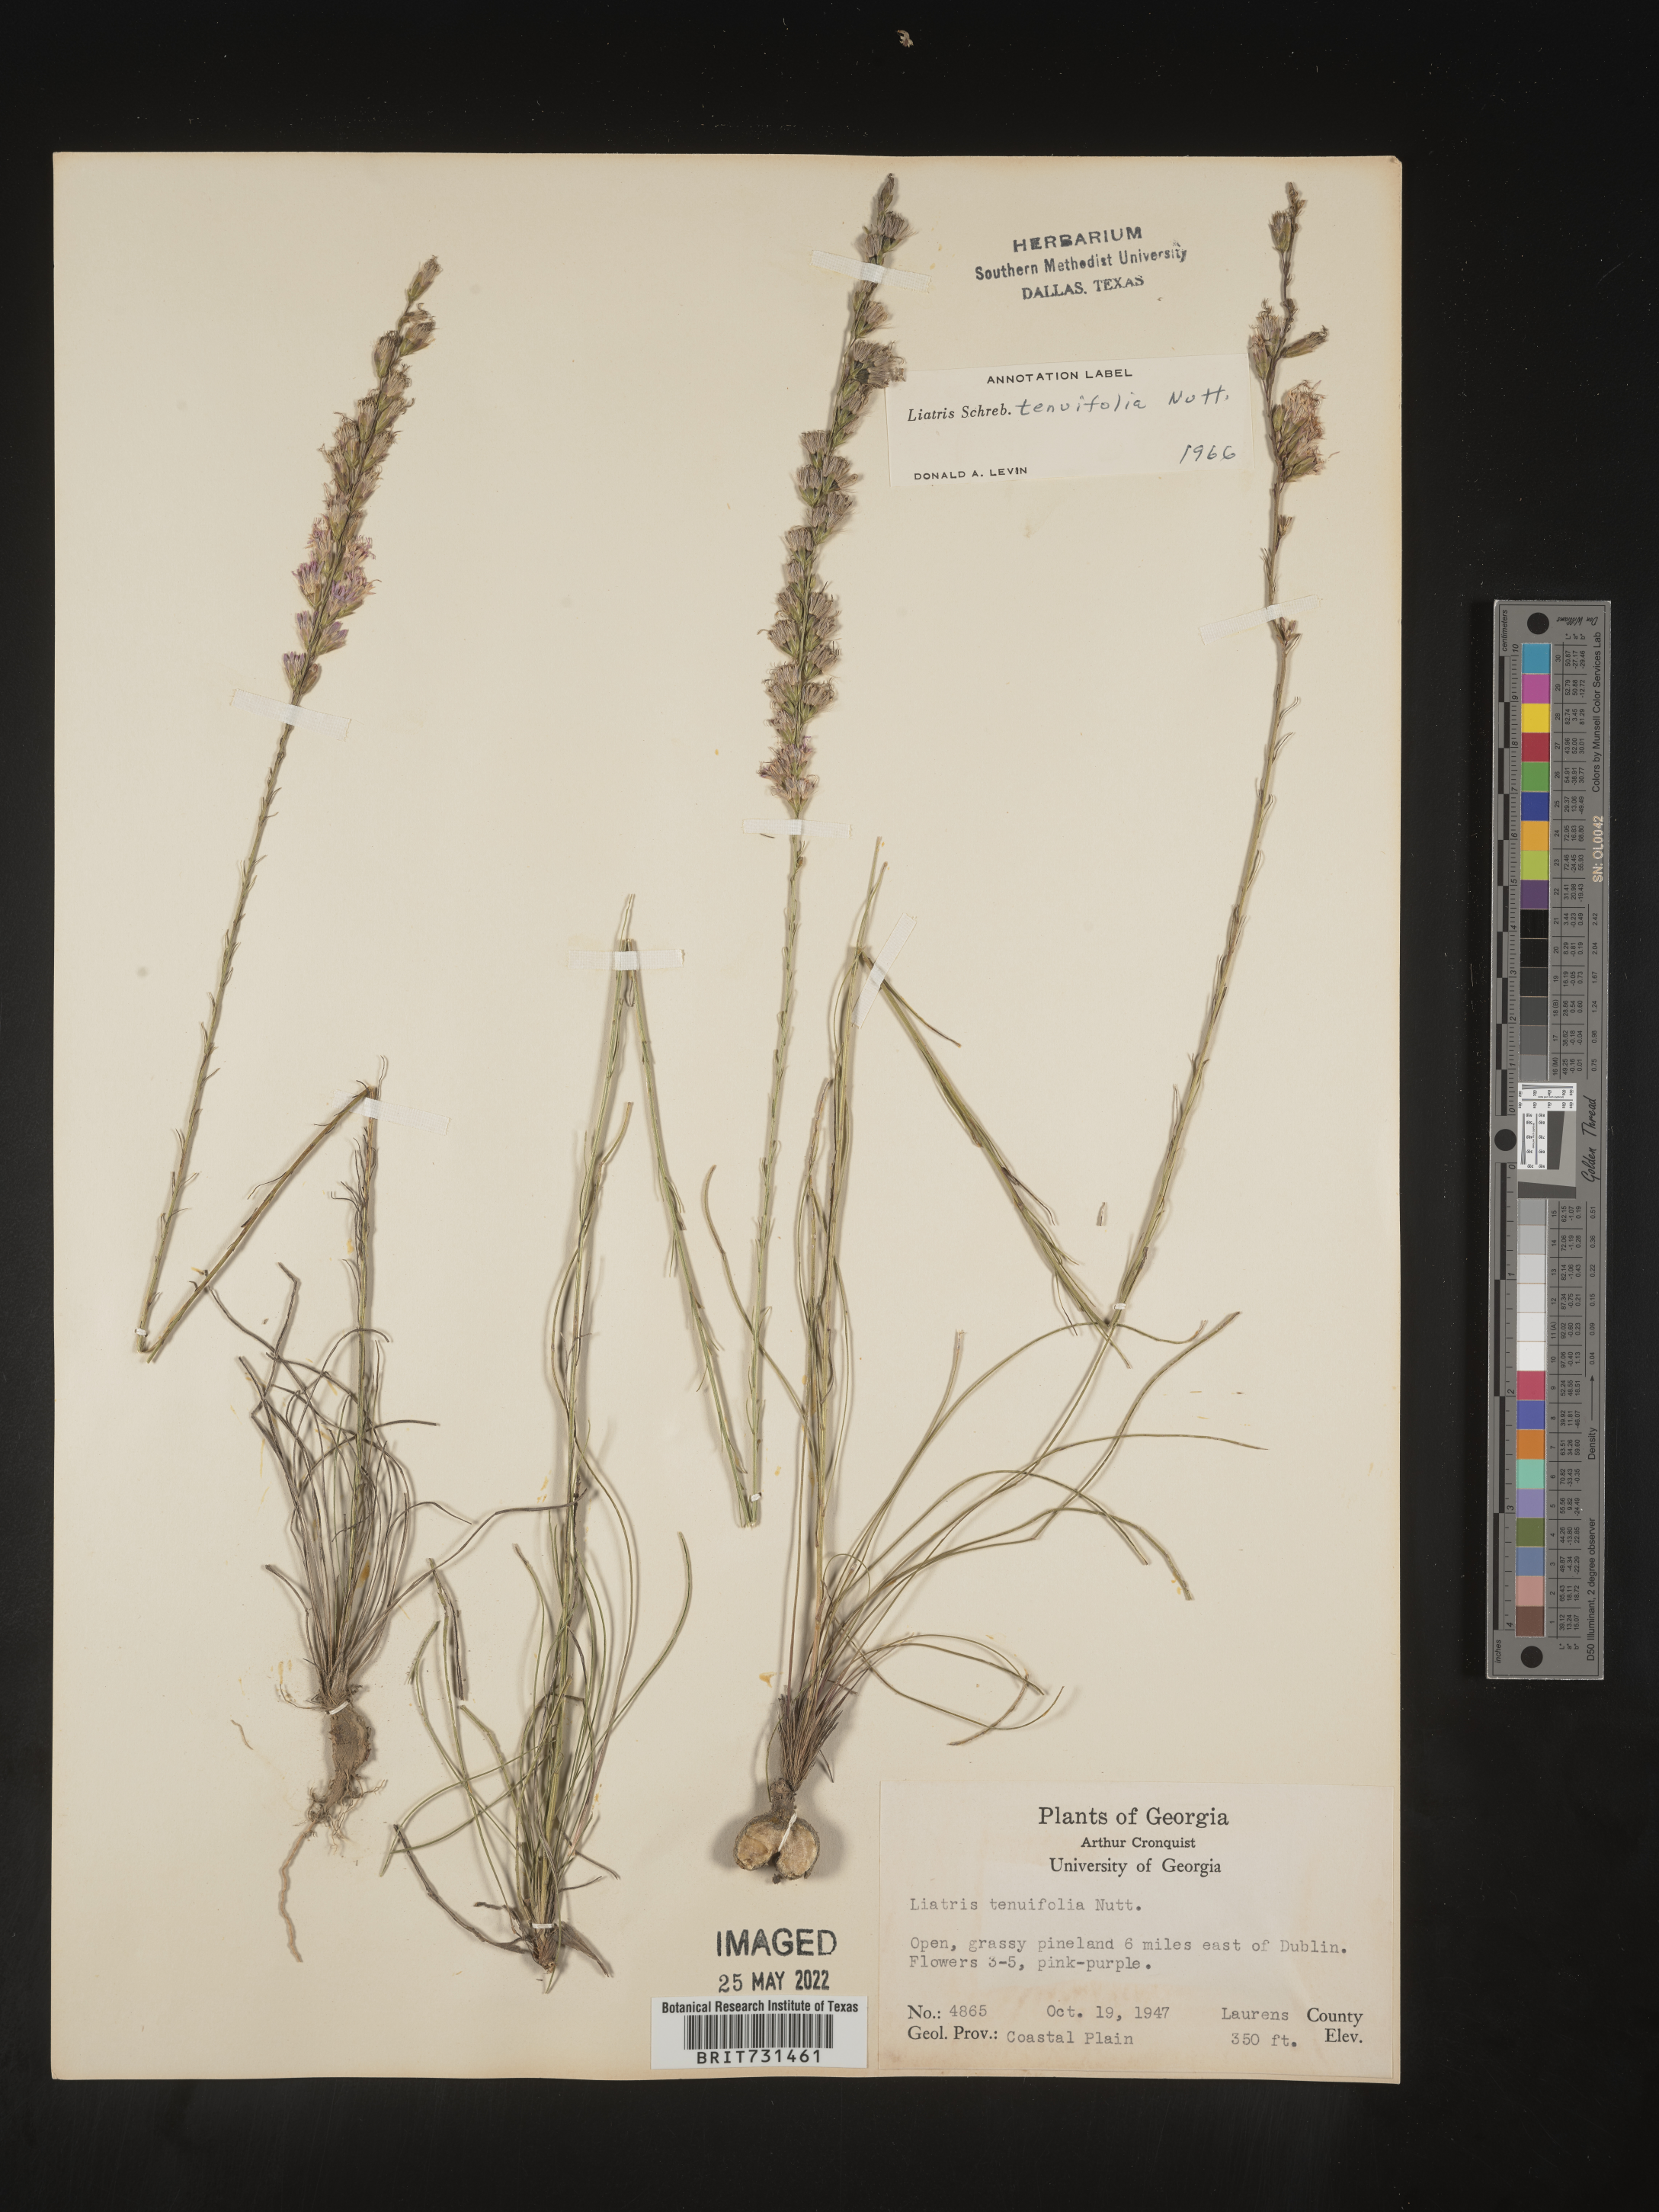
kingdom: Plantae
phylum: Tracheophyta
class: Magnoliopsida
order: Asterales
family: Asteraceae
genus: Liatris
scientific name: Liatris tenuifolia
